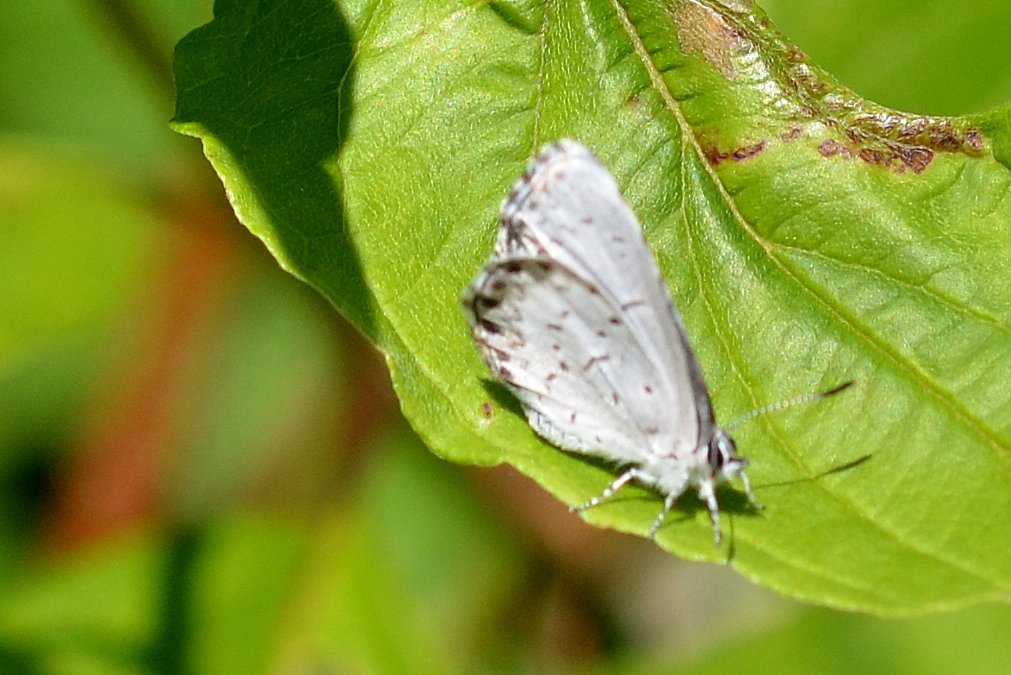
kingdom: Animalia
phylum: Arthropoda
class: Insecta
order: Lepidoptera
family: Lycaenidae
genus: Celastrina
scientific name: Celastrina lucia
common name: Northern Spring Azure
